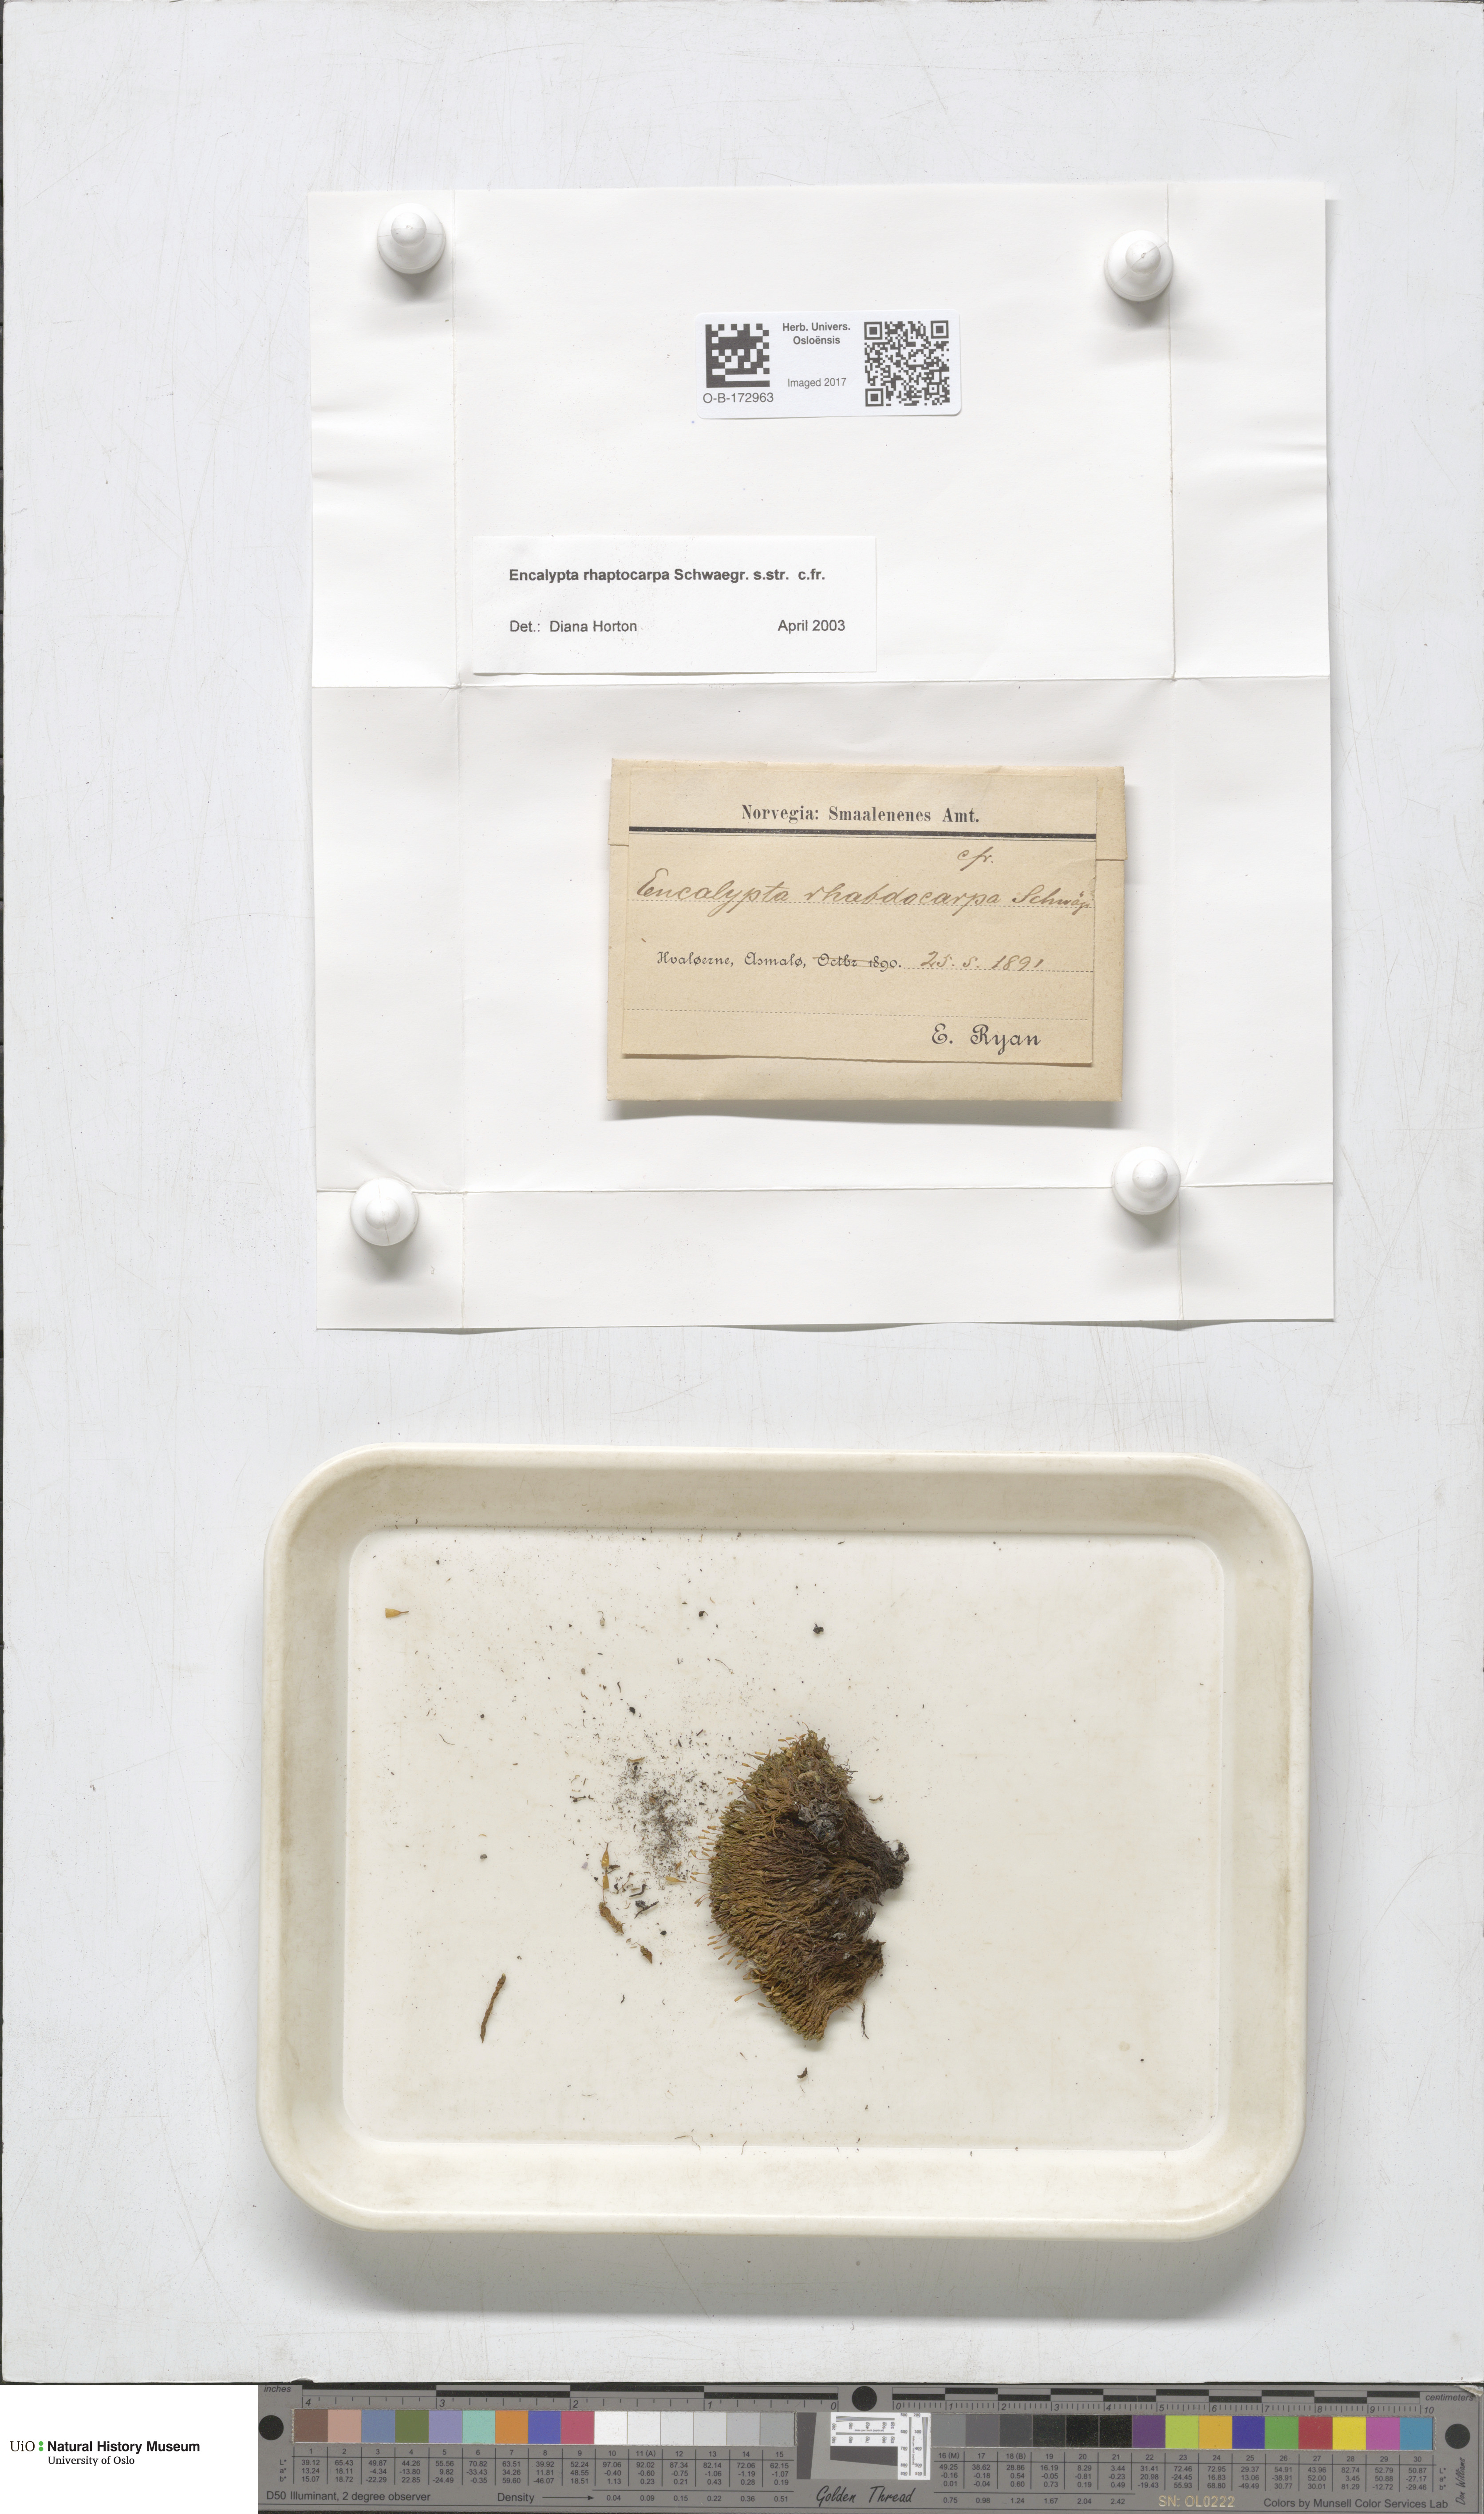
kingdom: Plantae
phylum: Bryophyta
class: Bryopsida
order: Encalyptales
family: Encalyptaceae
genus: Encalypta
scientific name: Encalypta rhaptocarpa
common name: Ribbed extinguisher moss
